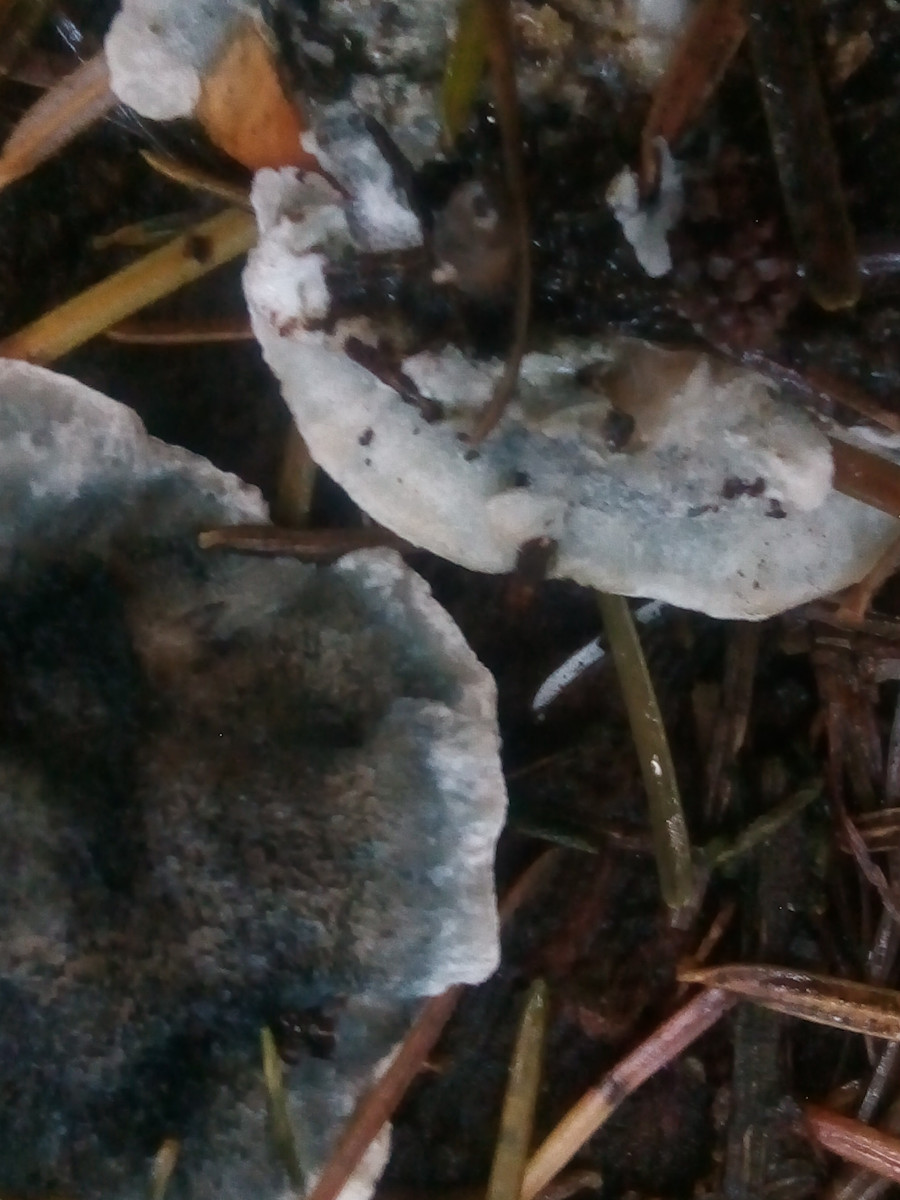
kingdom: Fungi
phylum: Basidiomycota
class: Agaricomycetes
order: Polyporales
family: Polyporaceae
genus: Cyanosporus
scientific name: Cyanosporus caesius
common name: blålig kødporesvamp
